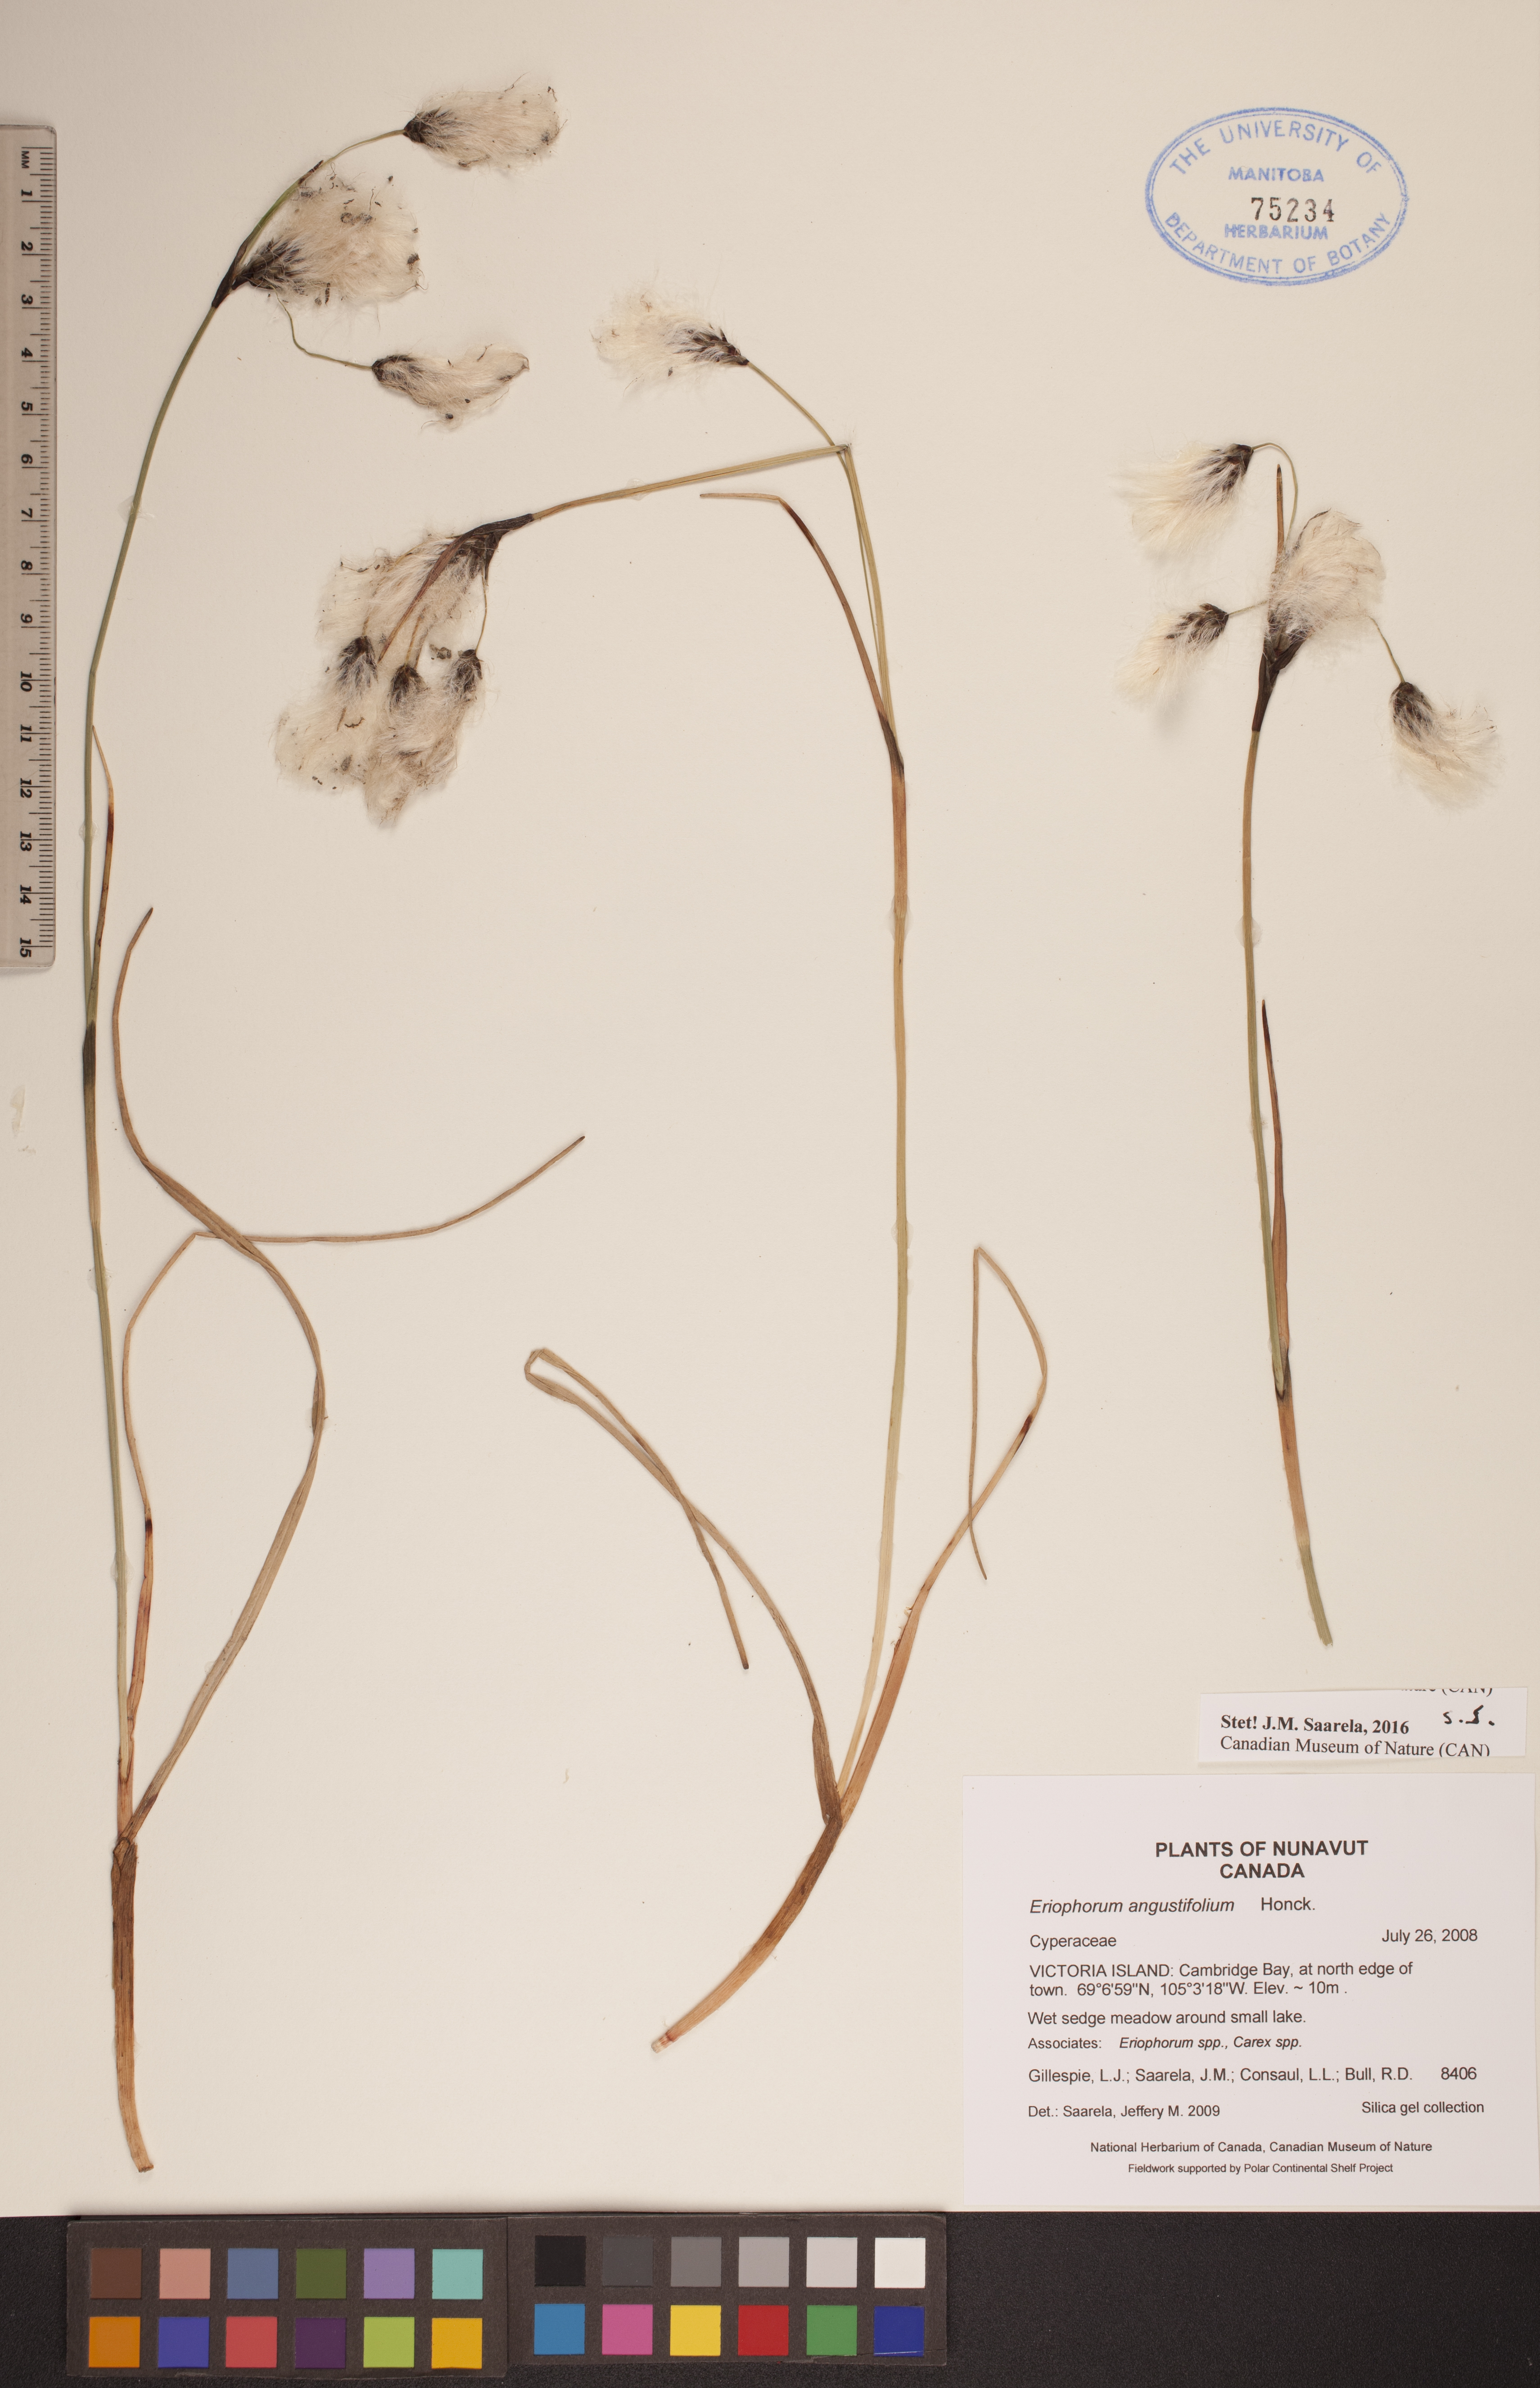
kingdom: Plantae
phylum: Tracheophyta
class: Liliopsida
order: Poales
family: Cyperaceae
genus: Eriophorum
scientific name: Eriophorum angustifolium
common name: Common cottongrass
